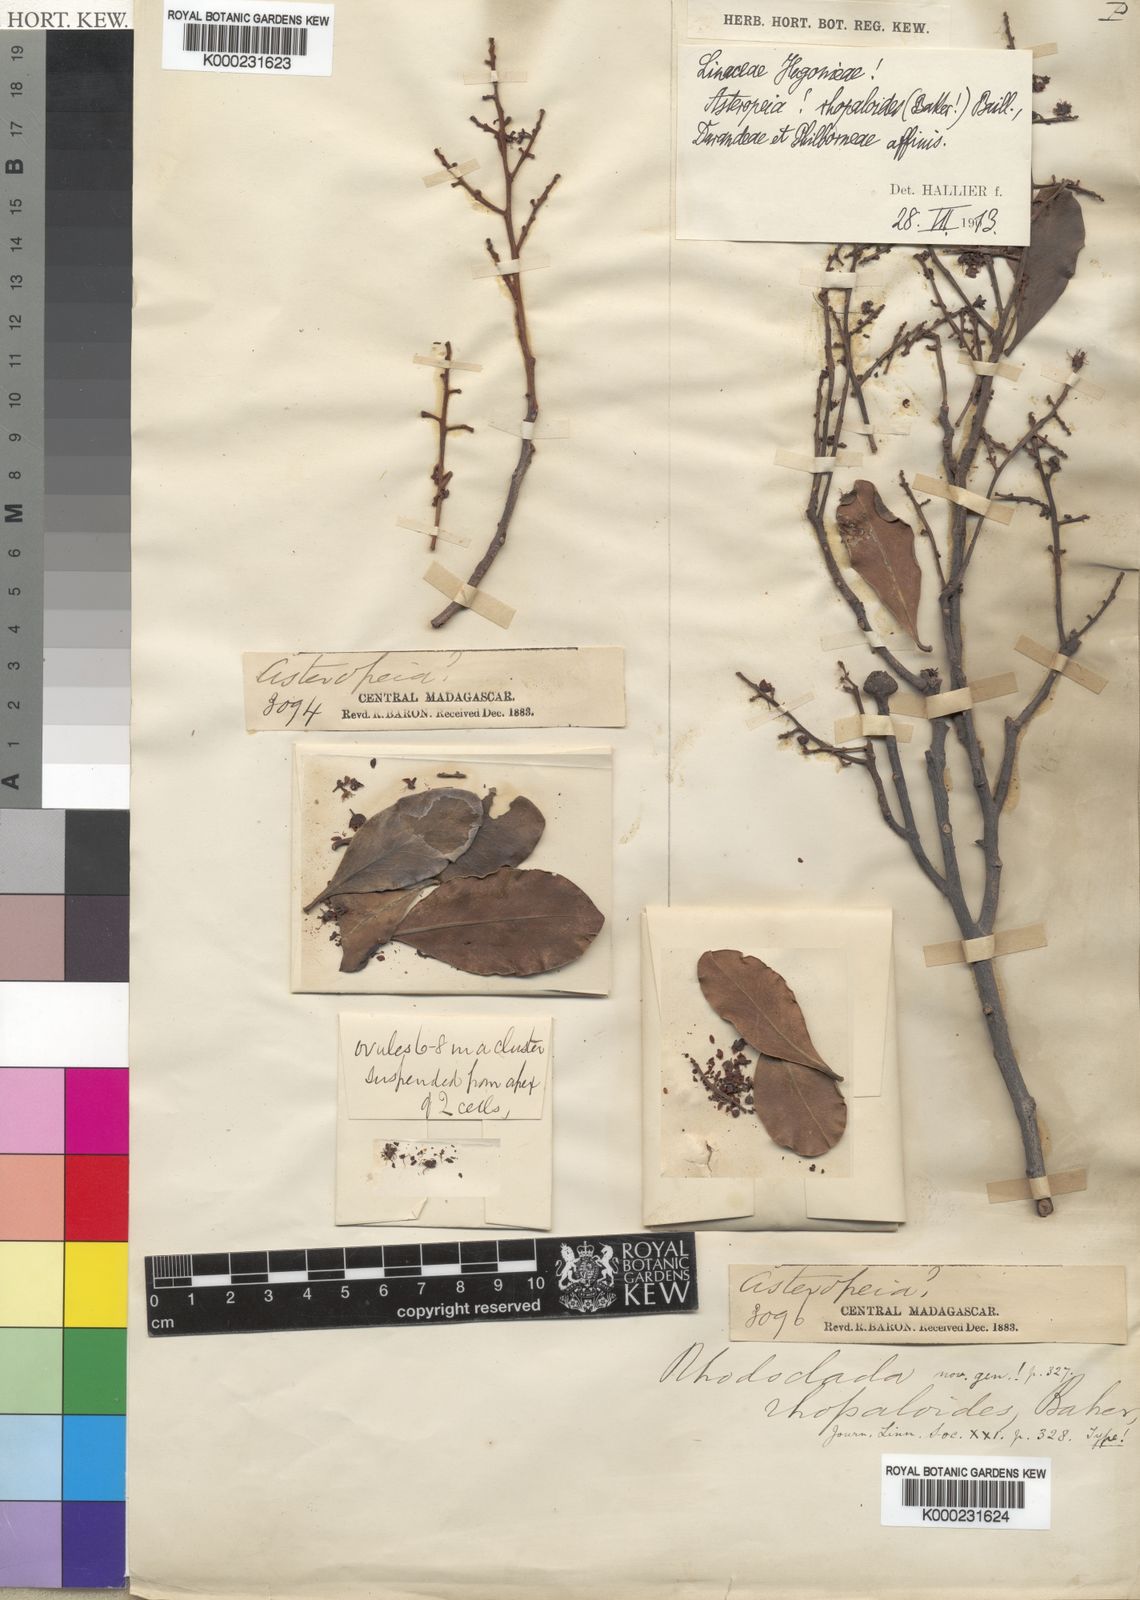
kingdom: Plantae
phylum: Tracheophyta
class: Magnoliopsida
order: Caryophyllales
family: Asteropeiaceae
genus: Asteropeia
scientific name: Asteropeia rhopaloides
